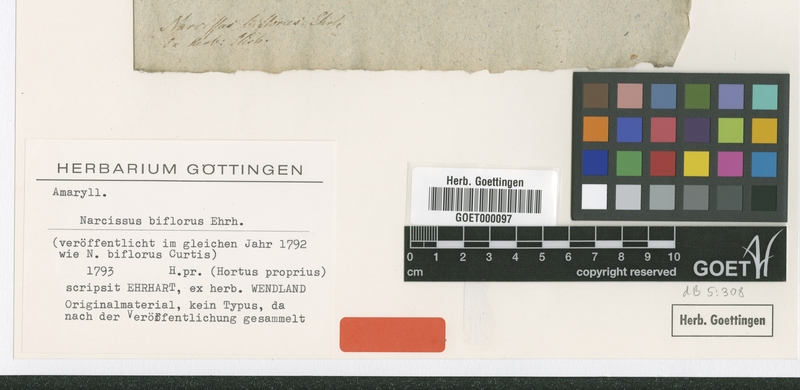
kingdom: Plantae
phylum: Tracheophyta
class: Liliopsida
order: Asparagales
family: Amaryllidaceae
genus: Narcissus
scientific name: Narcissus biflorus
